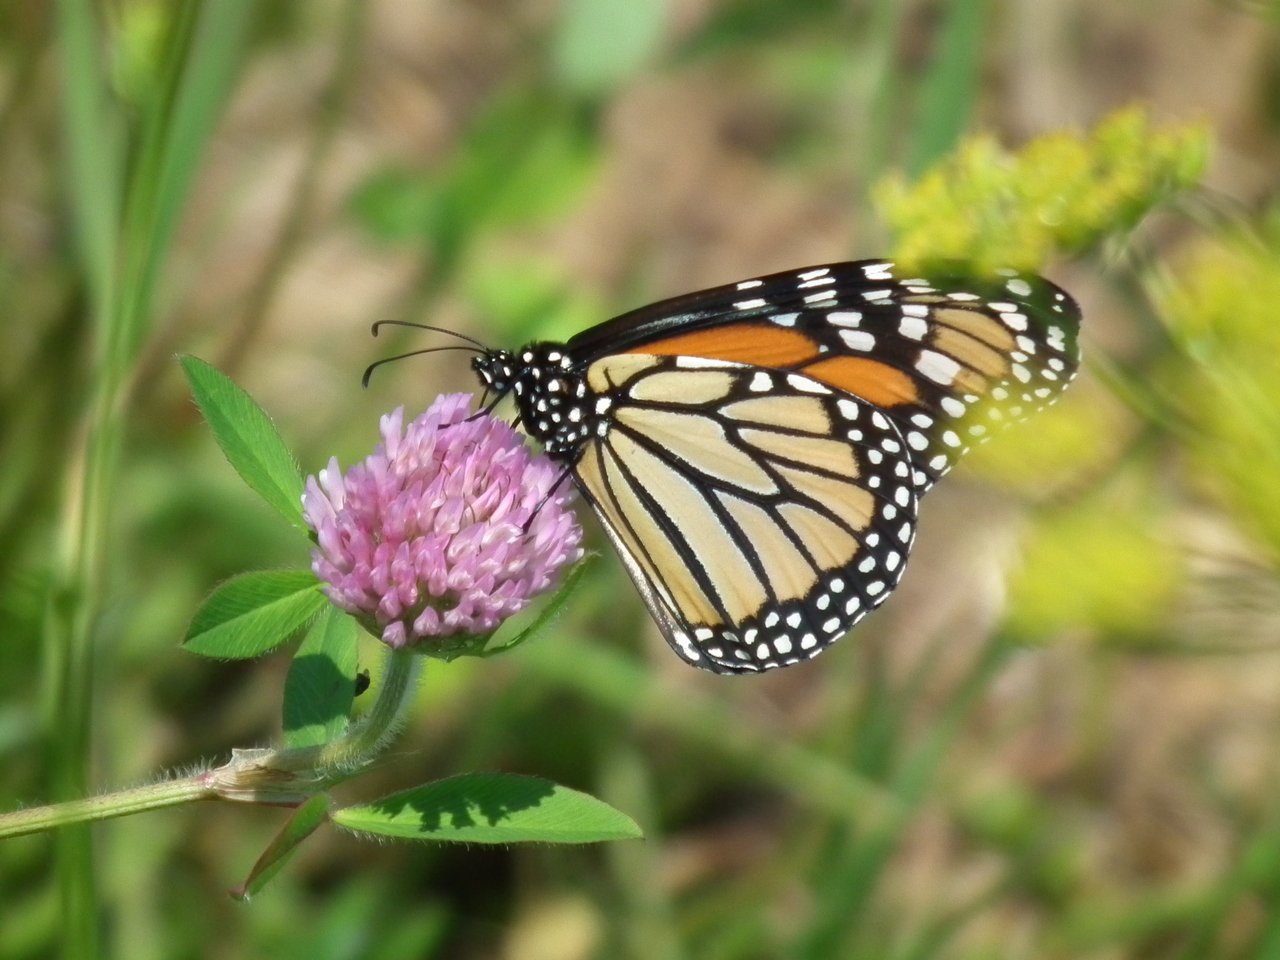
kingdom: Animalia
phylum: Arthropoda
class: Insecta
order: Lepidoptera
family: Nymphalidae
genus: Danaus
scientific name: Danaus plexippus
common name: Monarch
